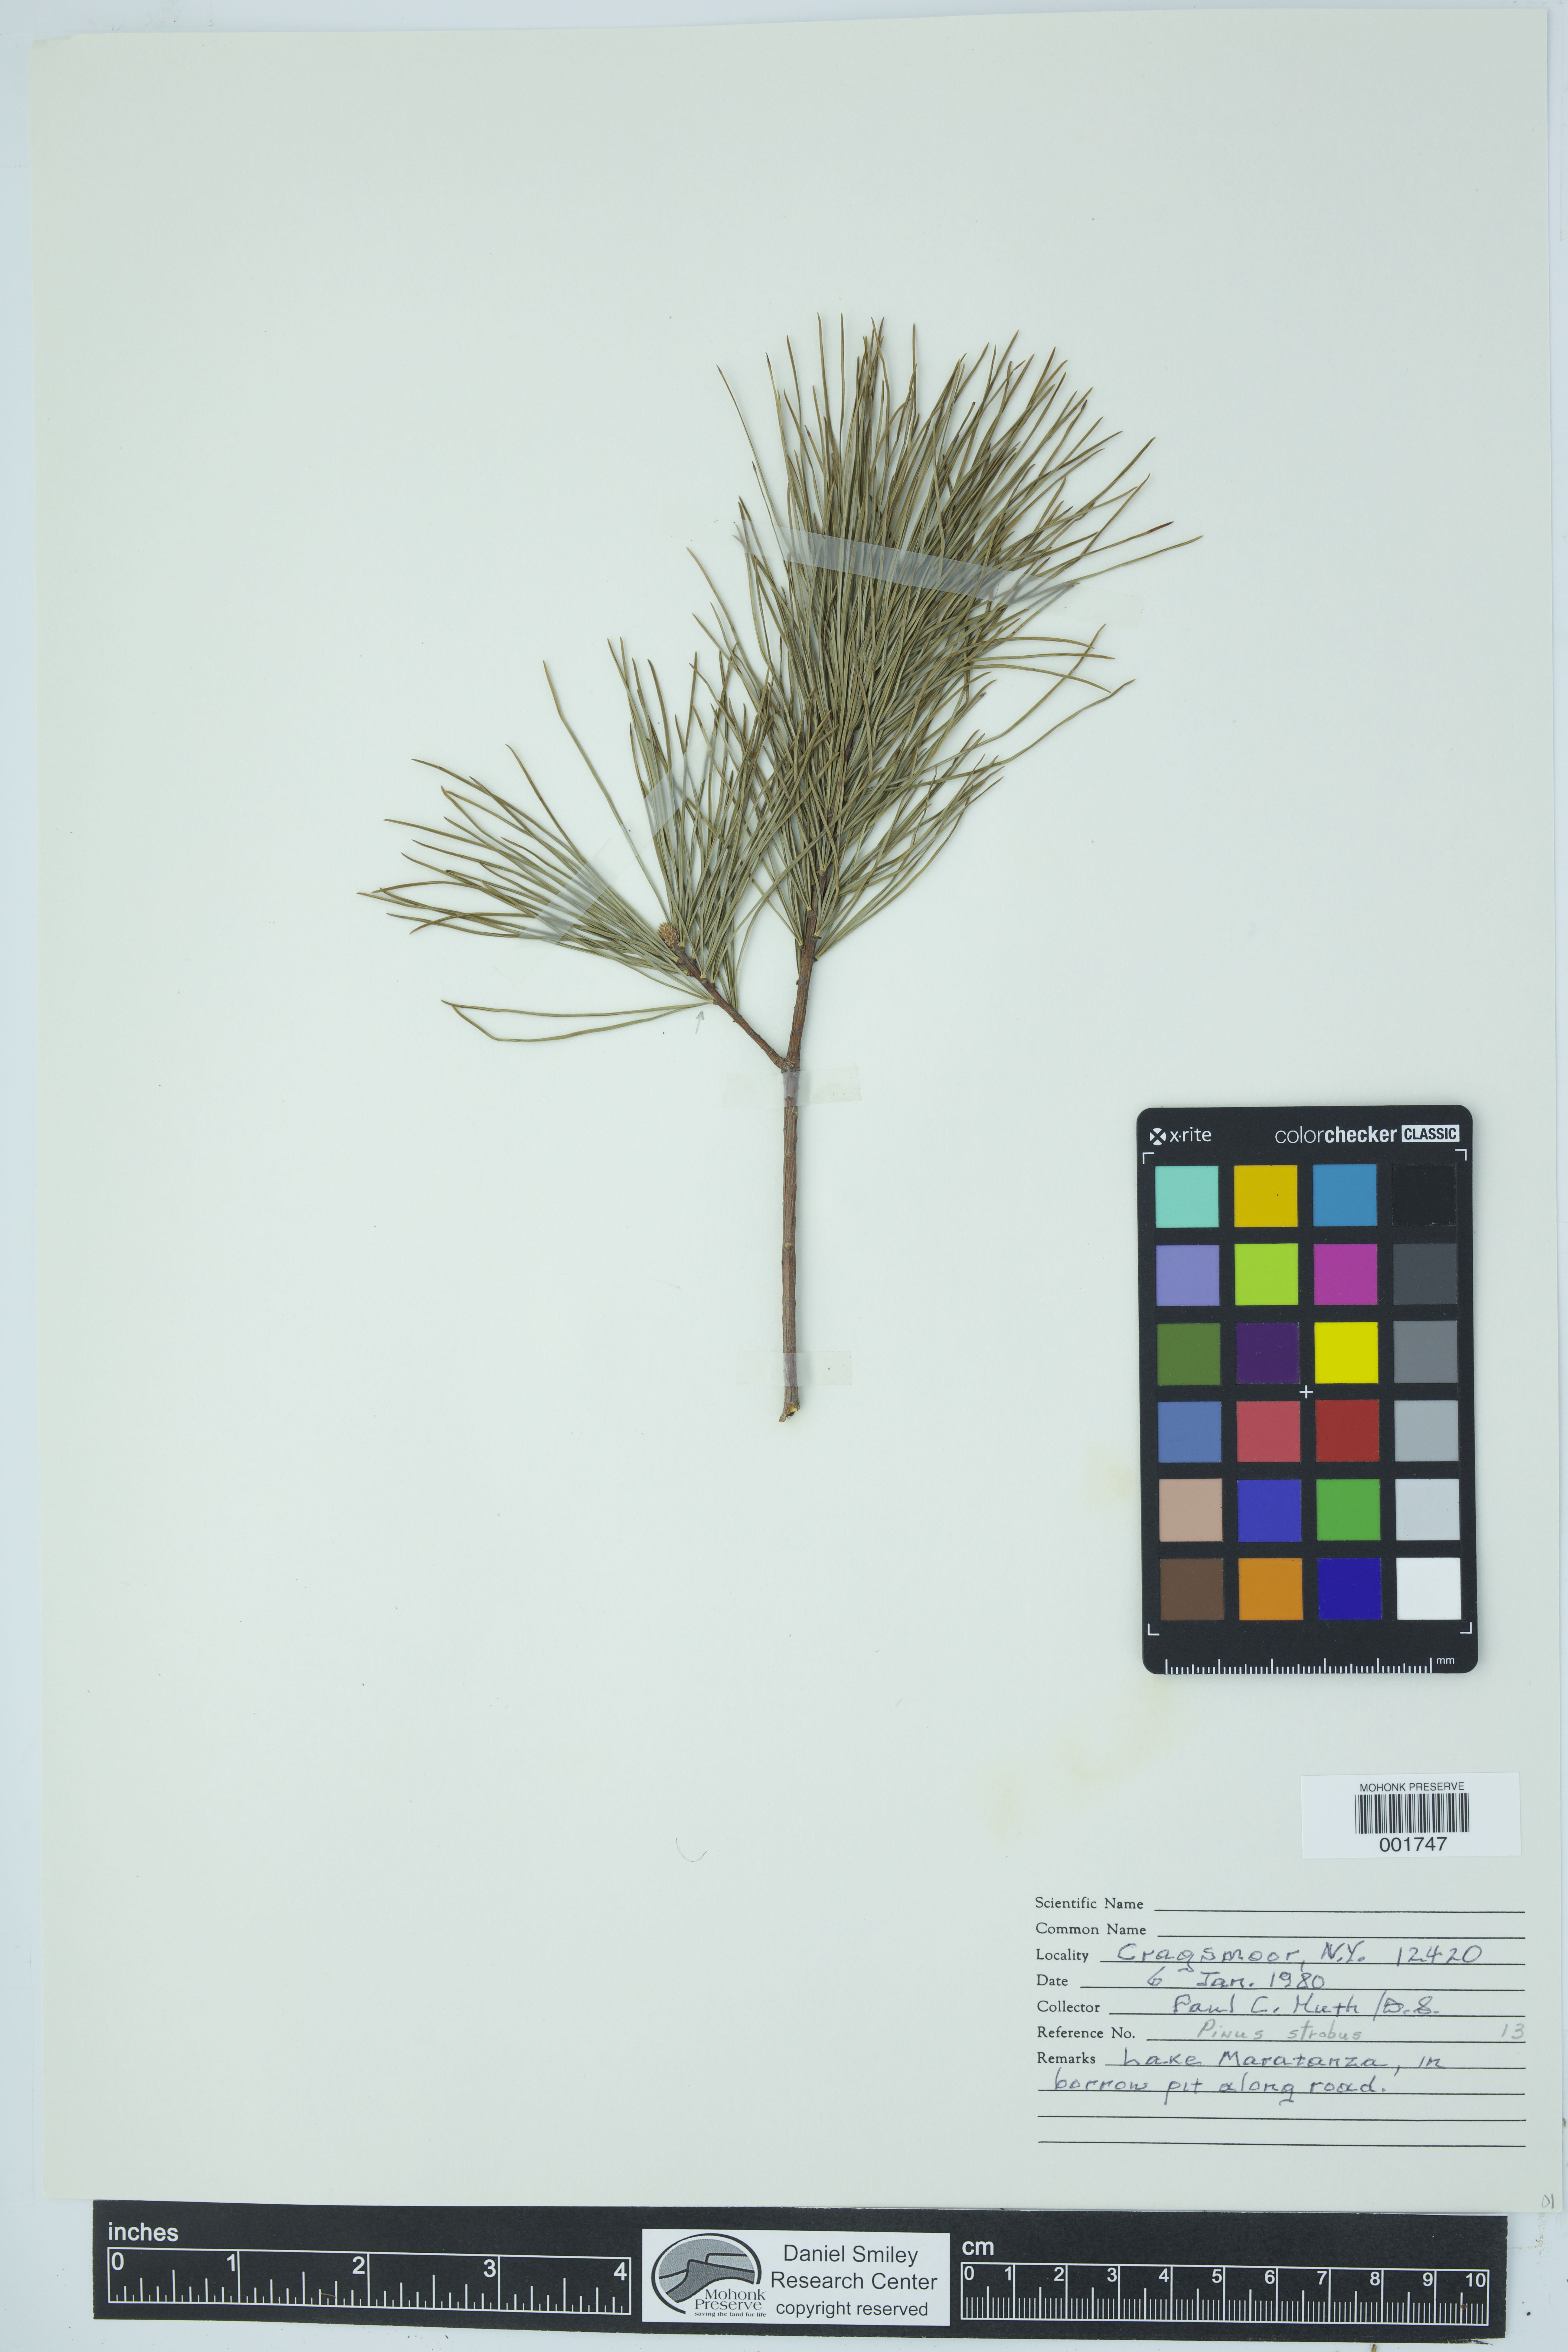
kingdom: Plantae
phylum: Tracheophyta
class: Pinopsida
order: Pinales
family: Pinaceae
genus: Pinus
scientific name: Pinus strobus
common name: Weymouth pine
